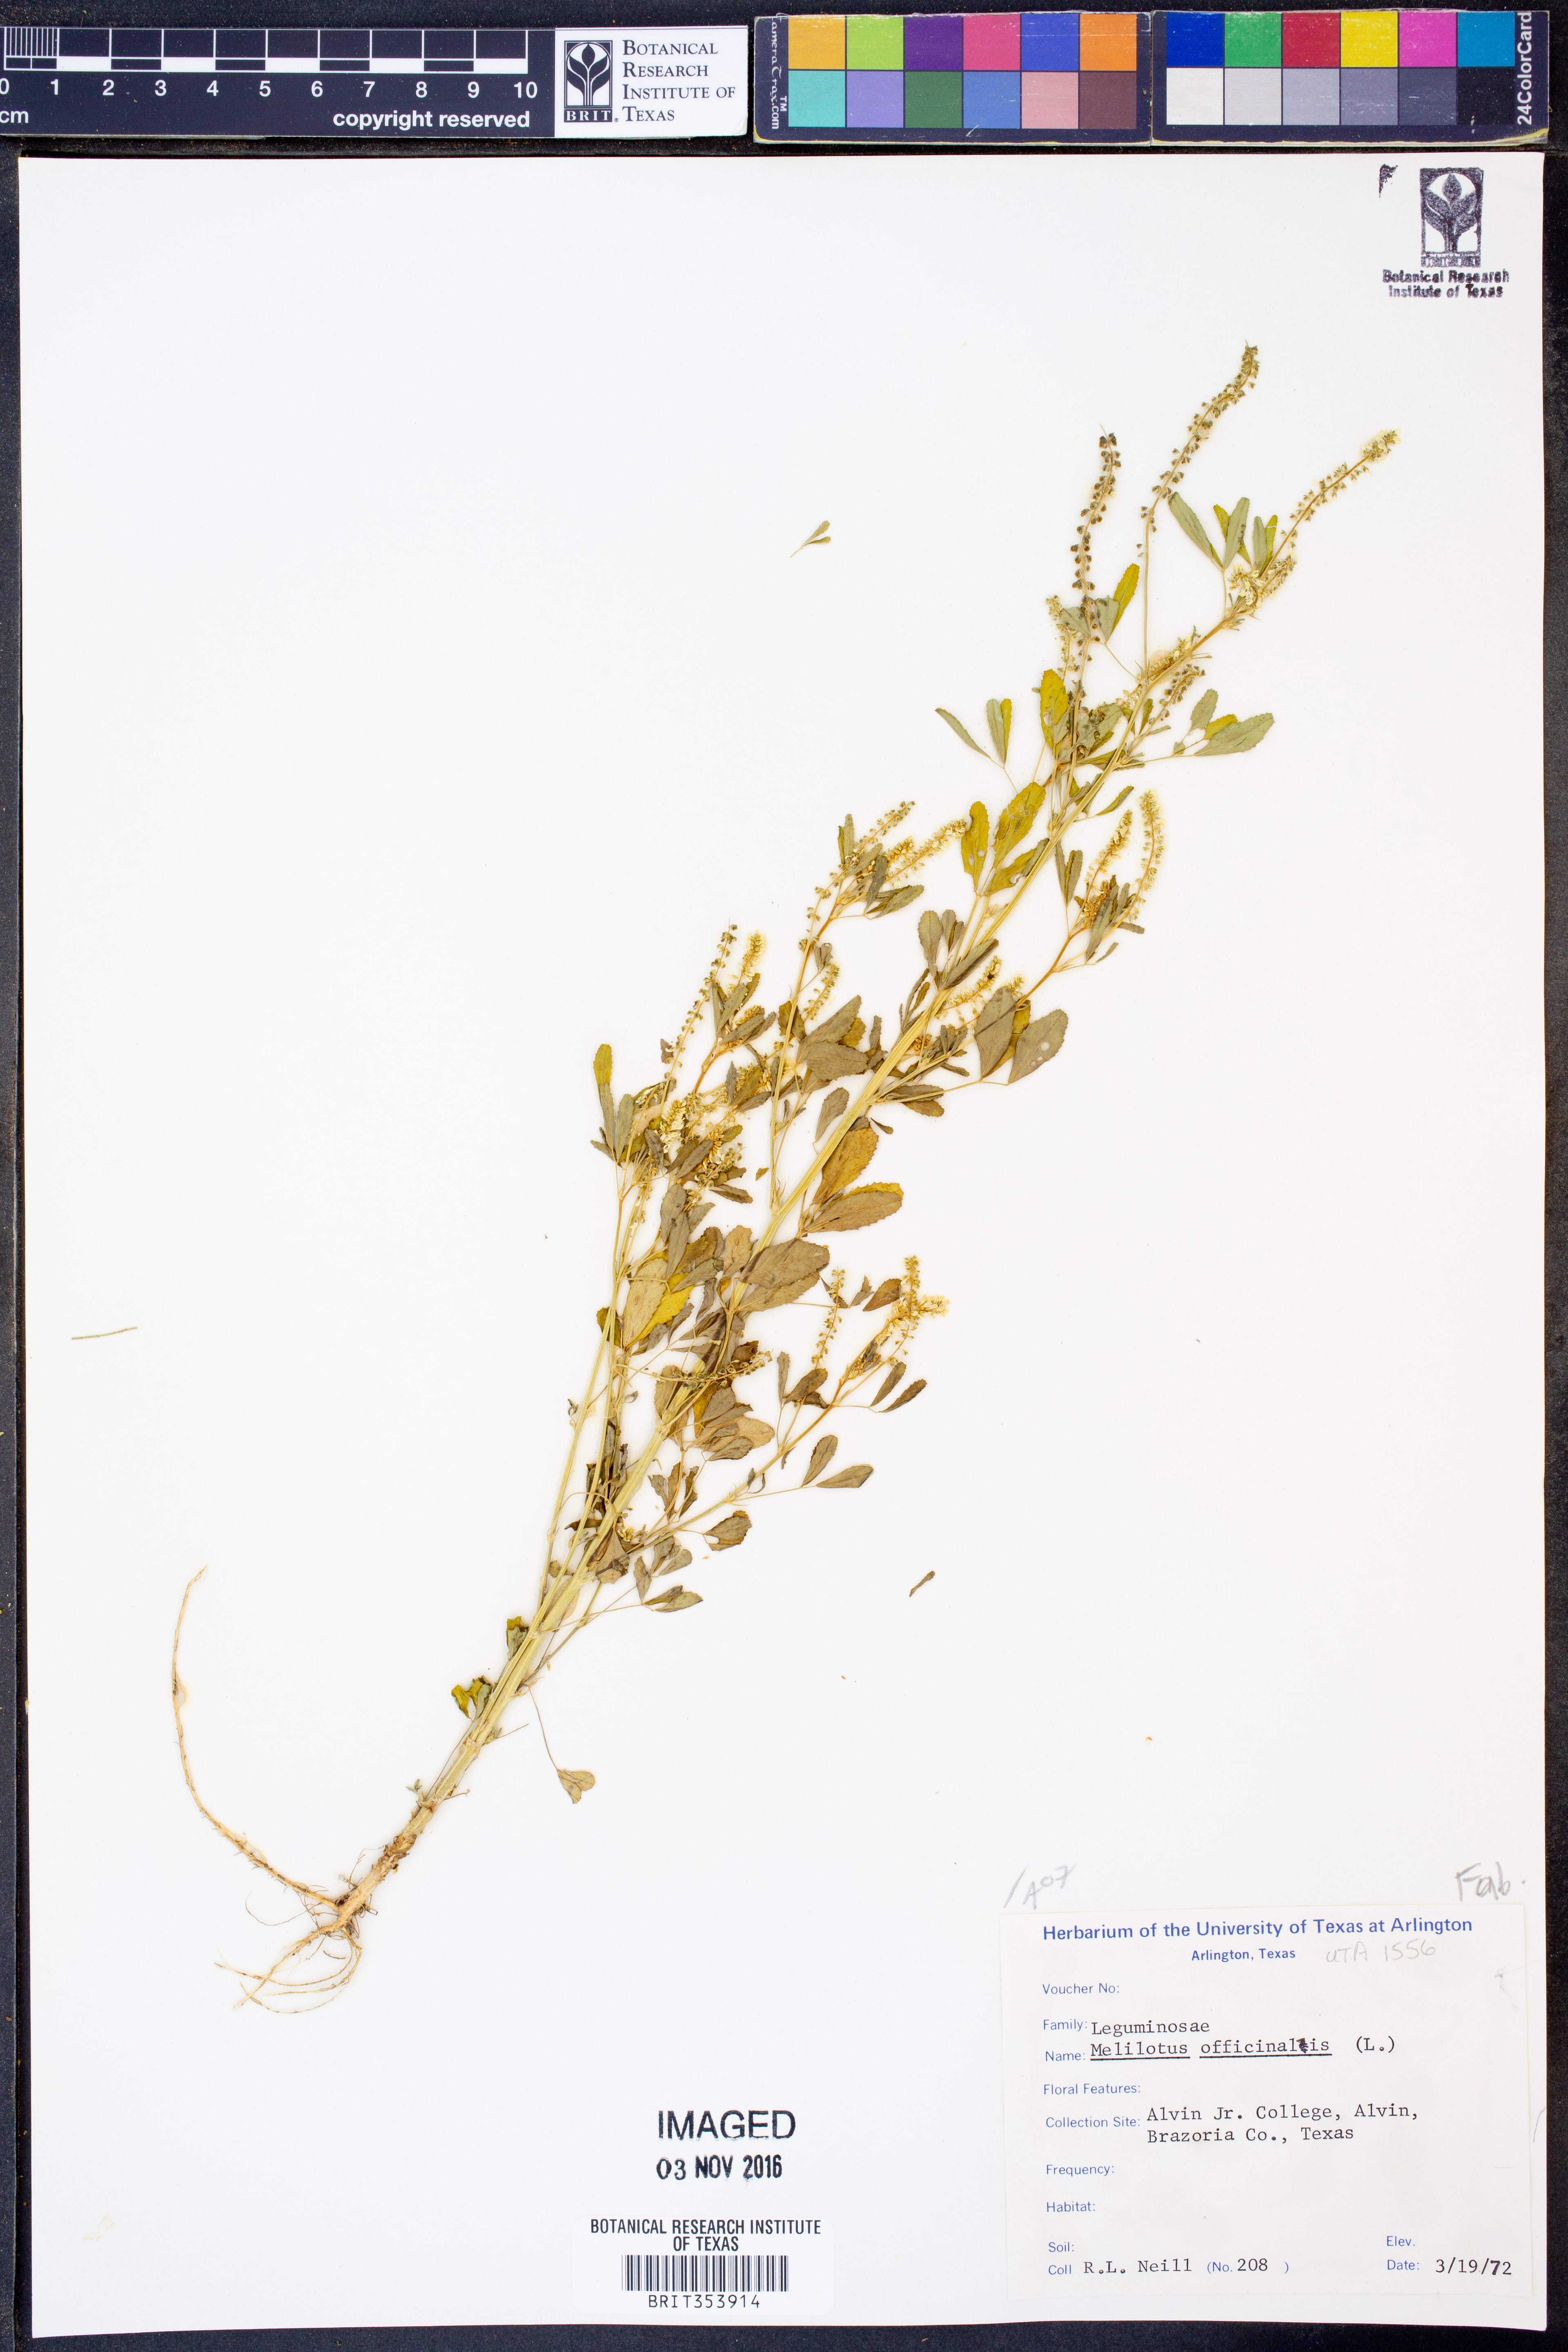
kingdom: Plantae
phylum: Tracheophyta
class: Magnoliopsida
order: Fabales
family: Fabaceae
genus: Melilotus
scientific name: Melilotus officinalis
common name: Sweetclover
